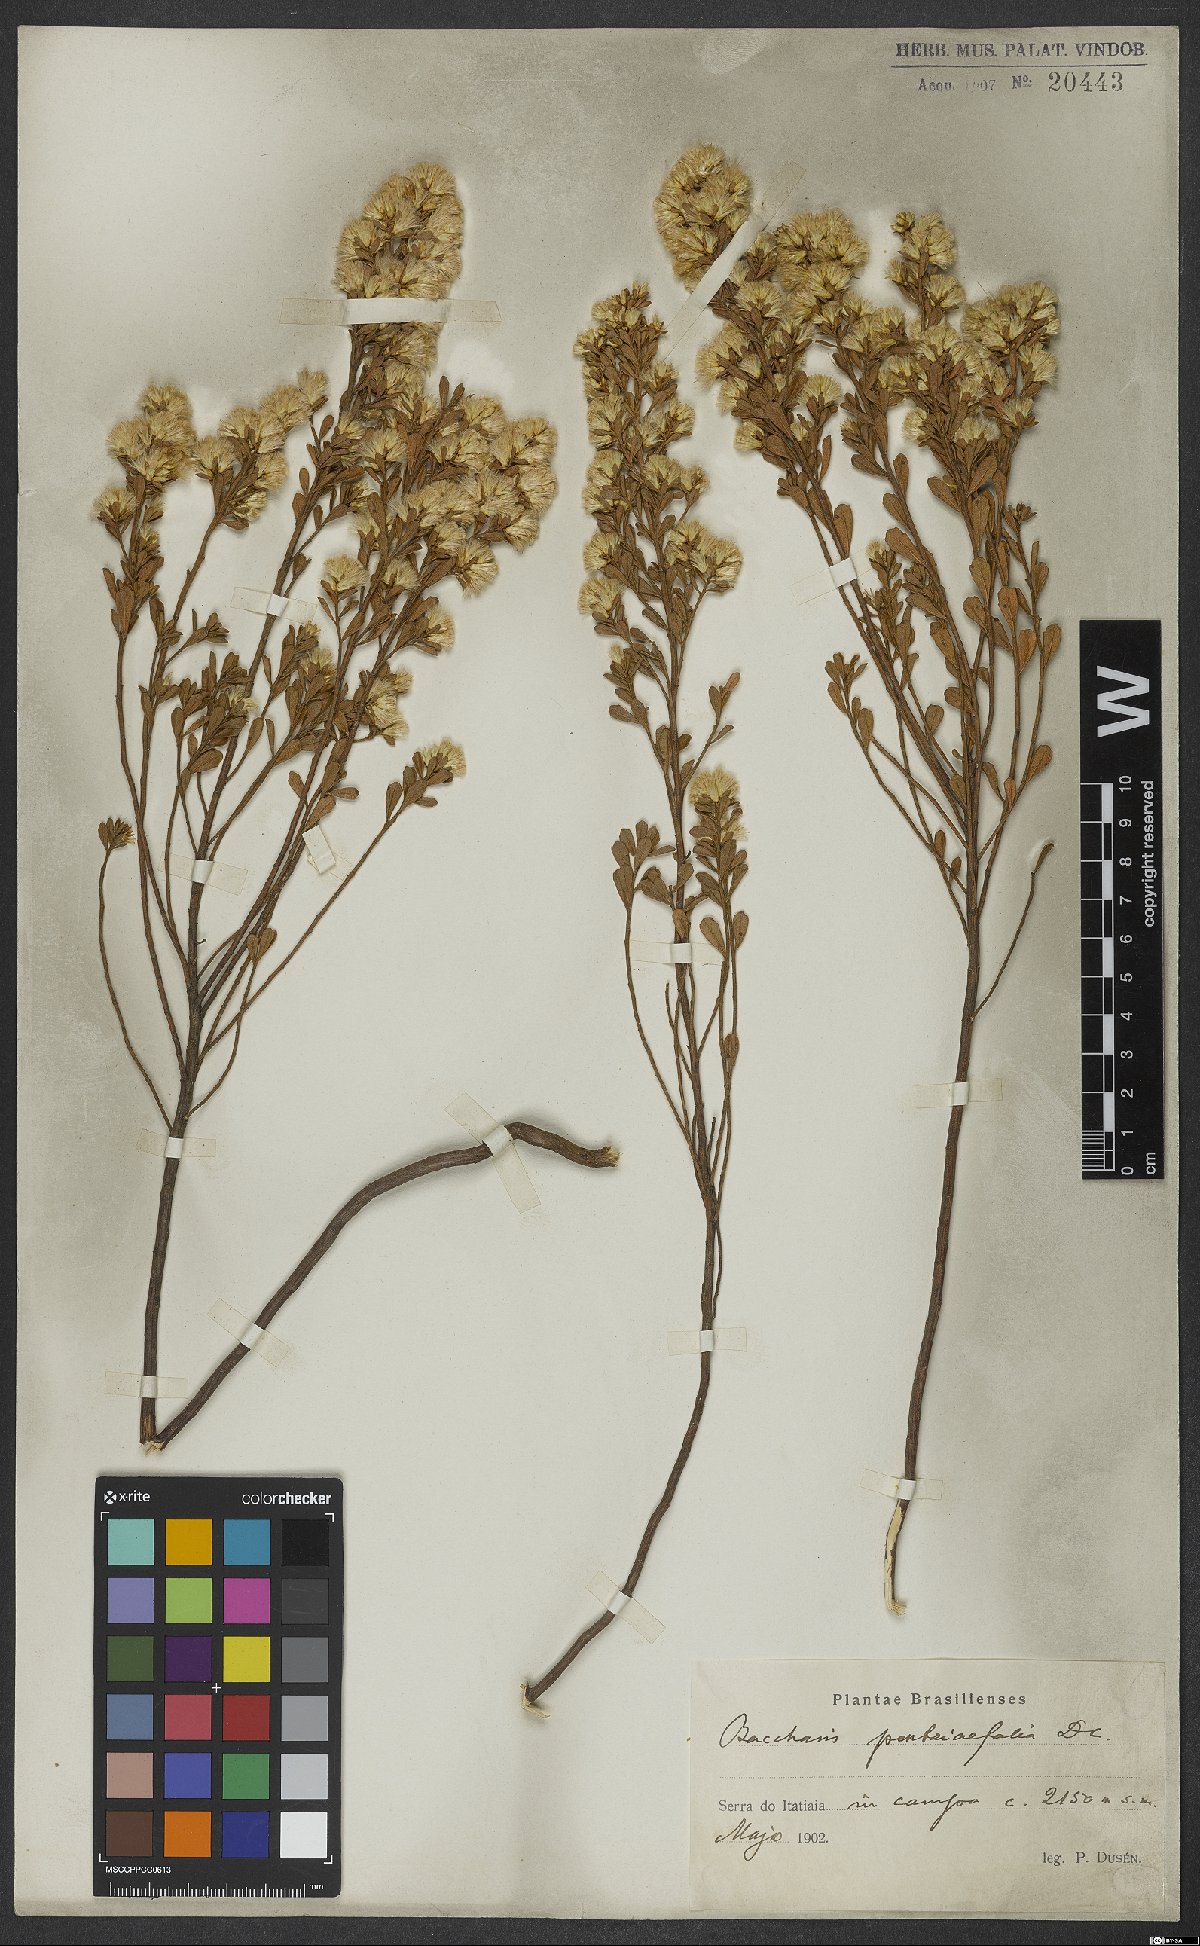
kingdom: Plantae
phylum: Tracheophyta
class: Magnoliopsida
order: Asterales
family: Asteraceae
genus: Baccharis
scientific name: Baccharis pentziifolia
